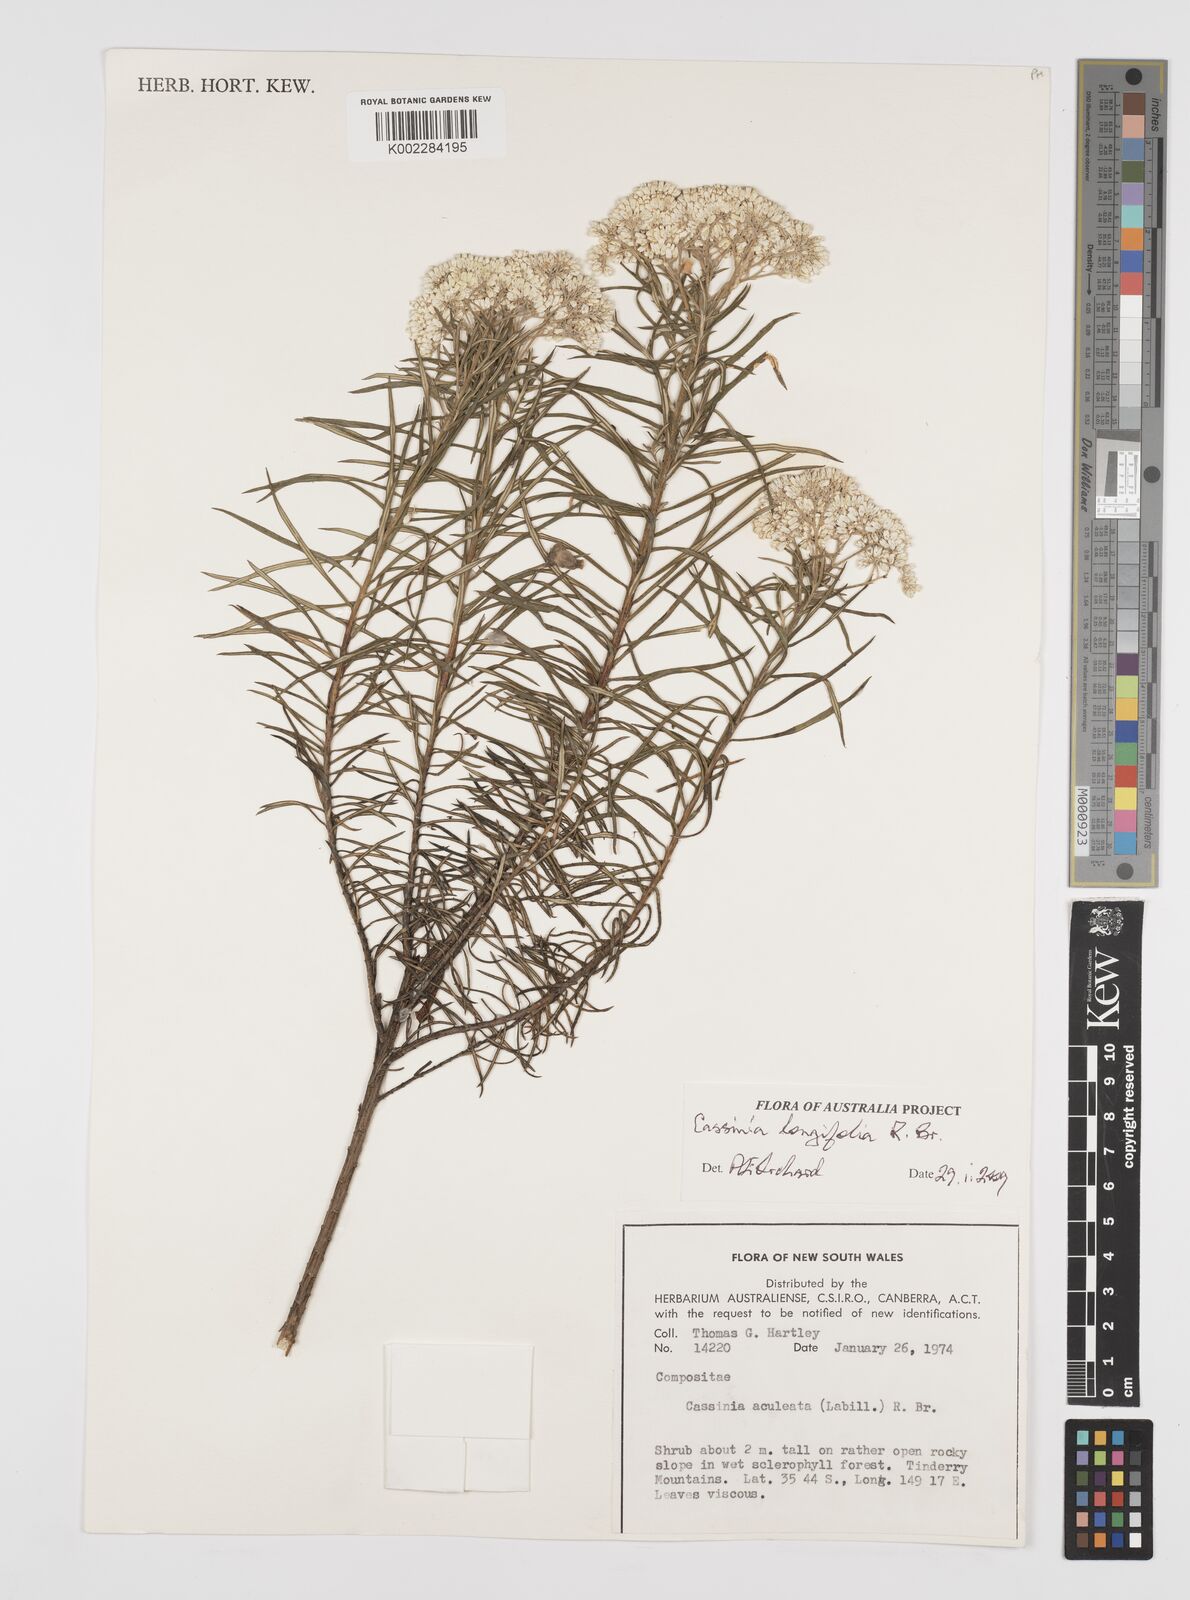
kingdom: Plantae
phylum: Tracheophyta
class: Magnoliopsida
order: Asterales
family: Asteraceae
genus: Cassinia
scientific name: Cassinia longifolia
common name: Longleaf-dogwood
